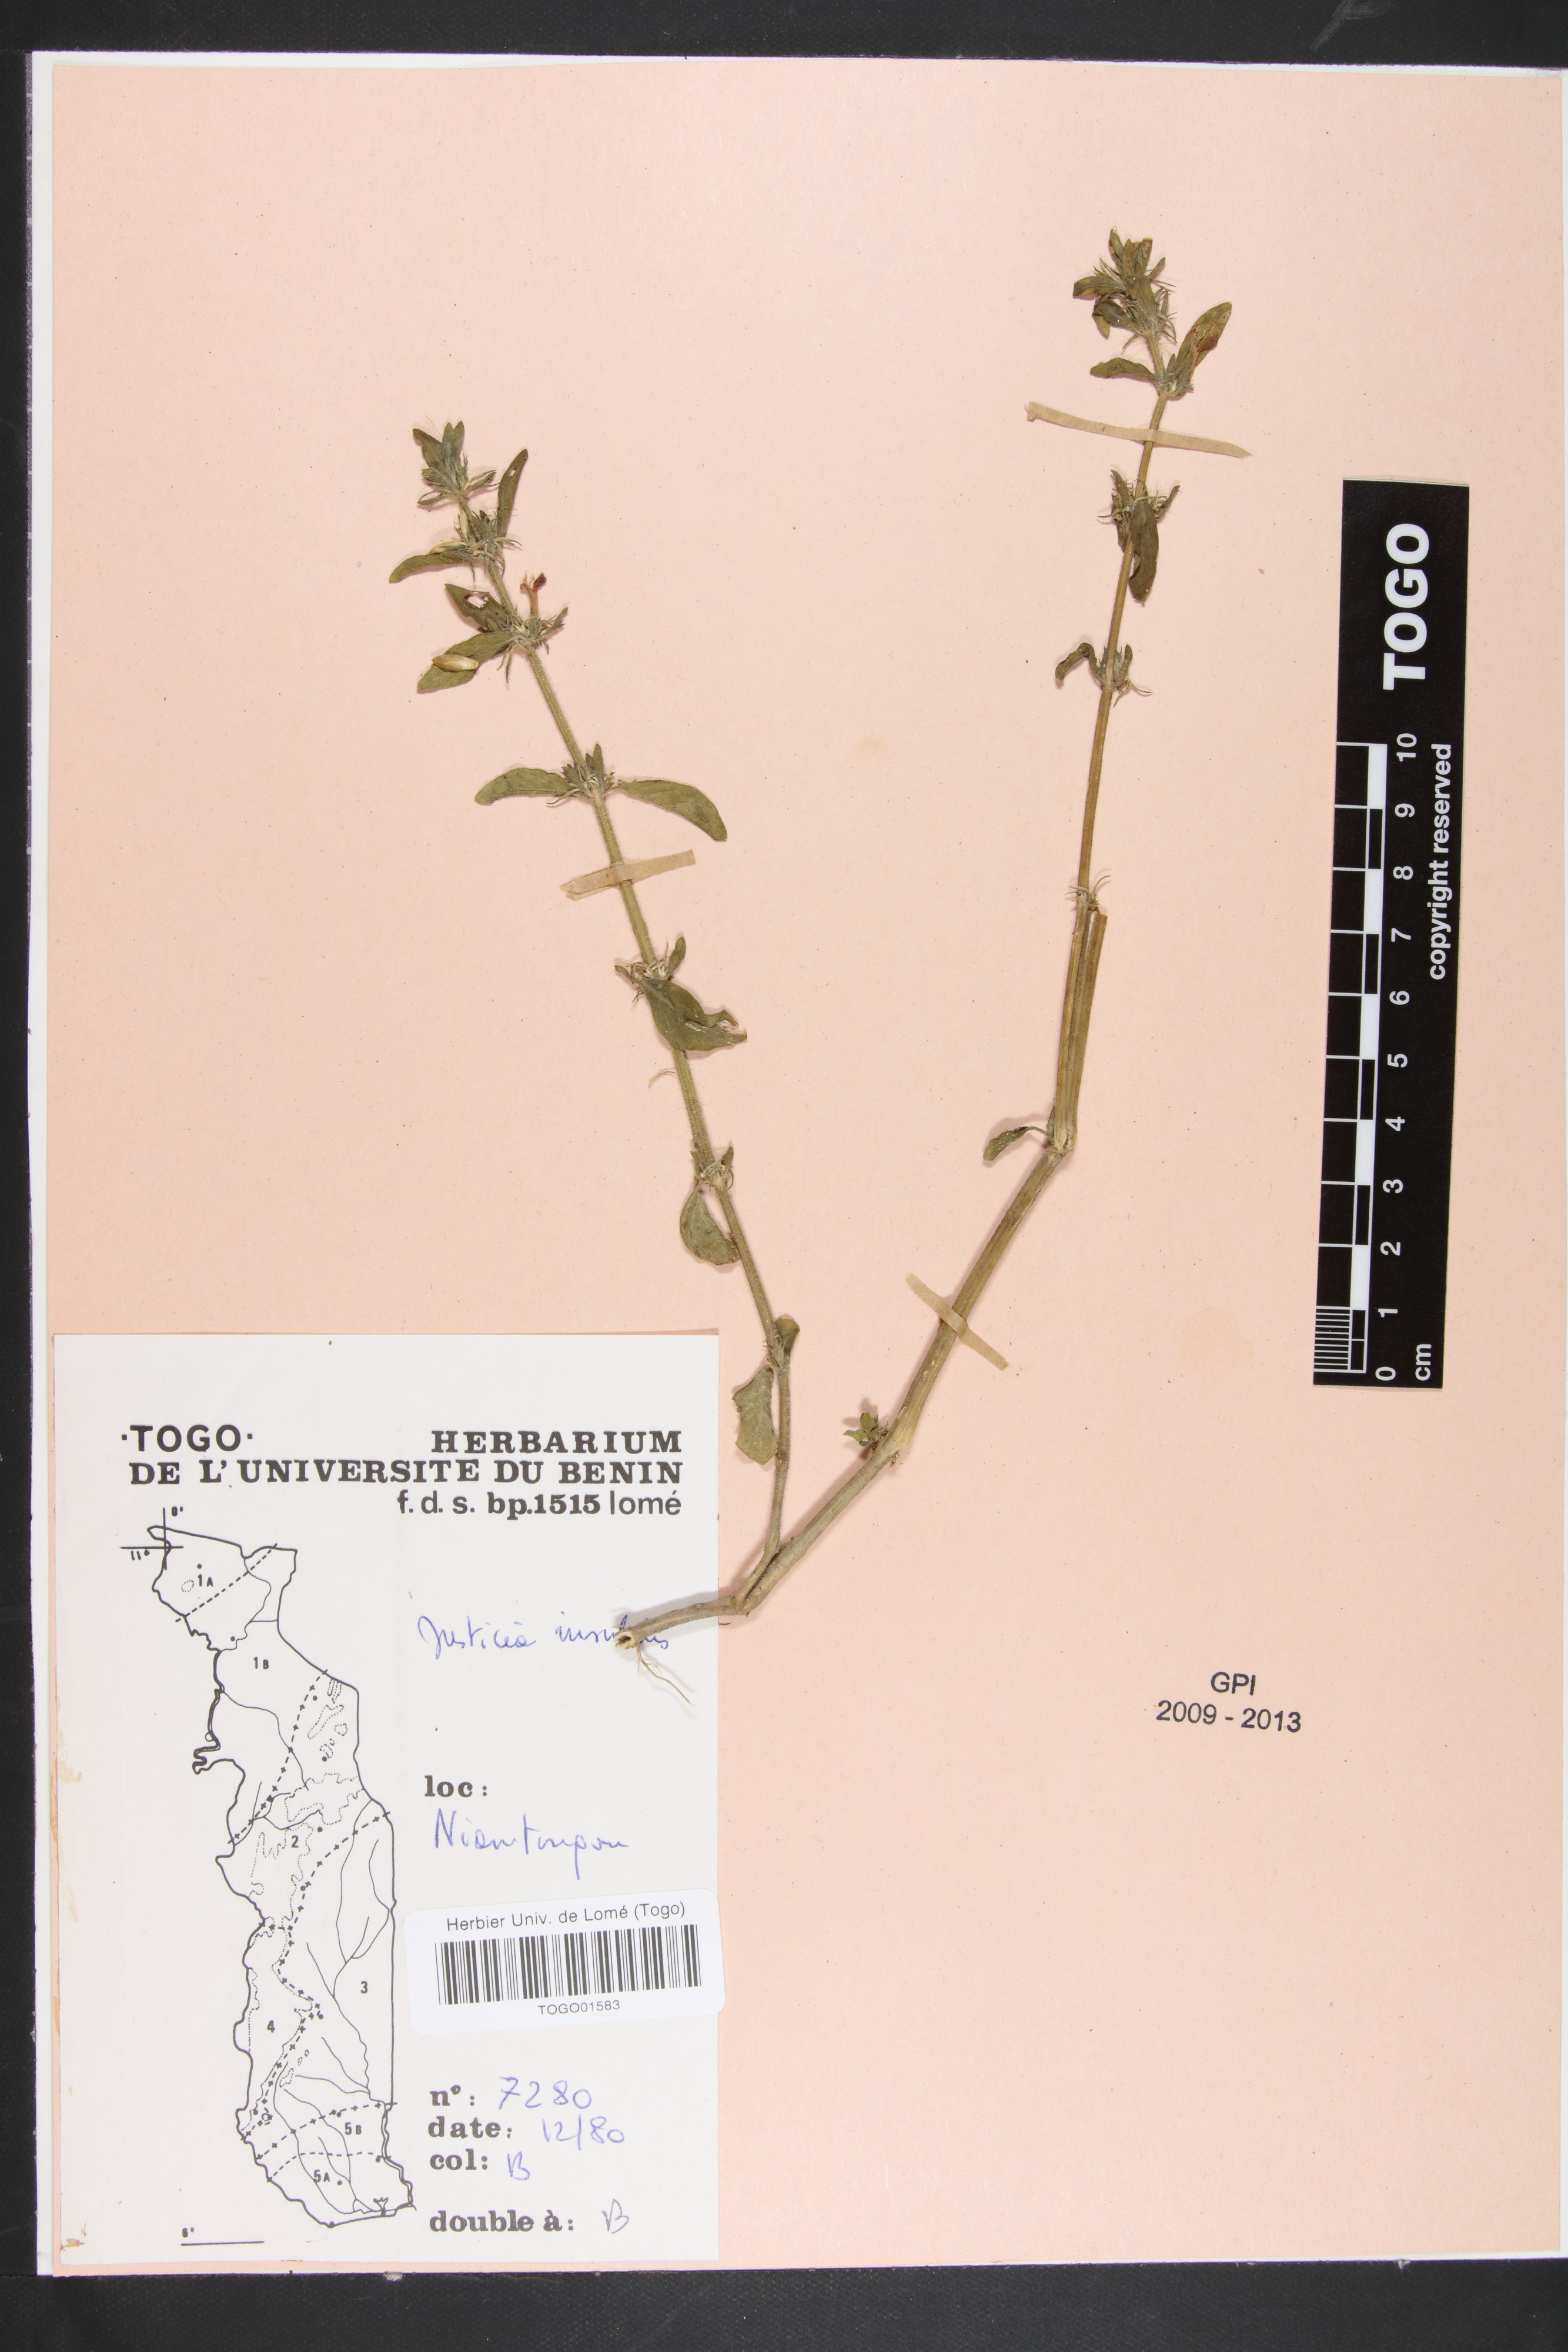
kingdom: Plantae
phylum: Tracheophyta
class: Magnoliopsida
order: Lamiales
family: Acanthaceae
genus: Justicia
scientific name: Justicia insularis
